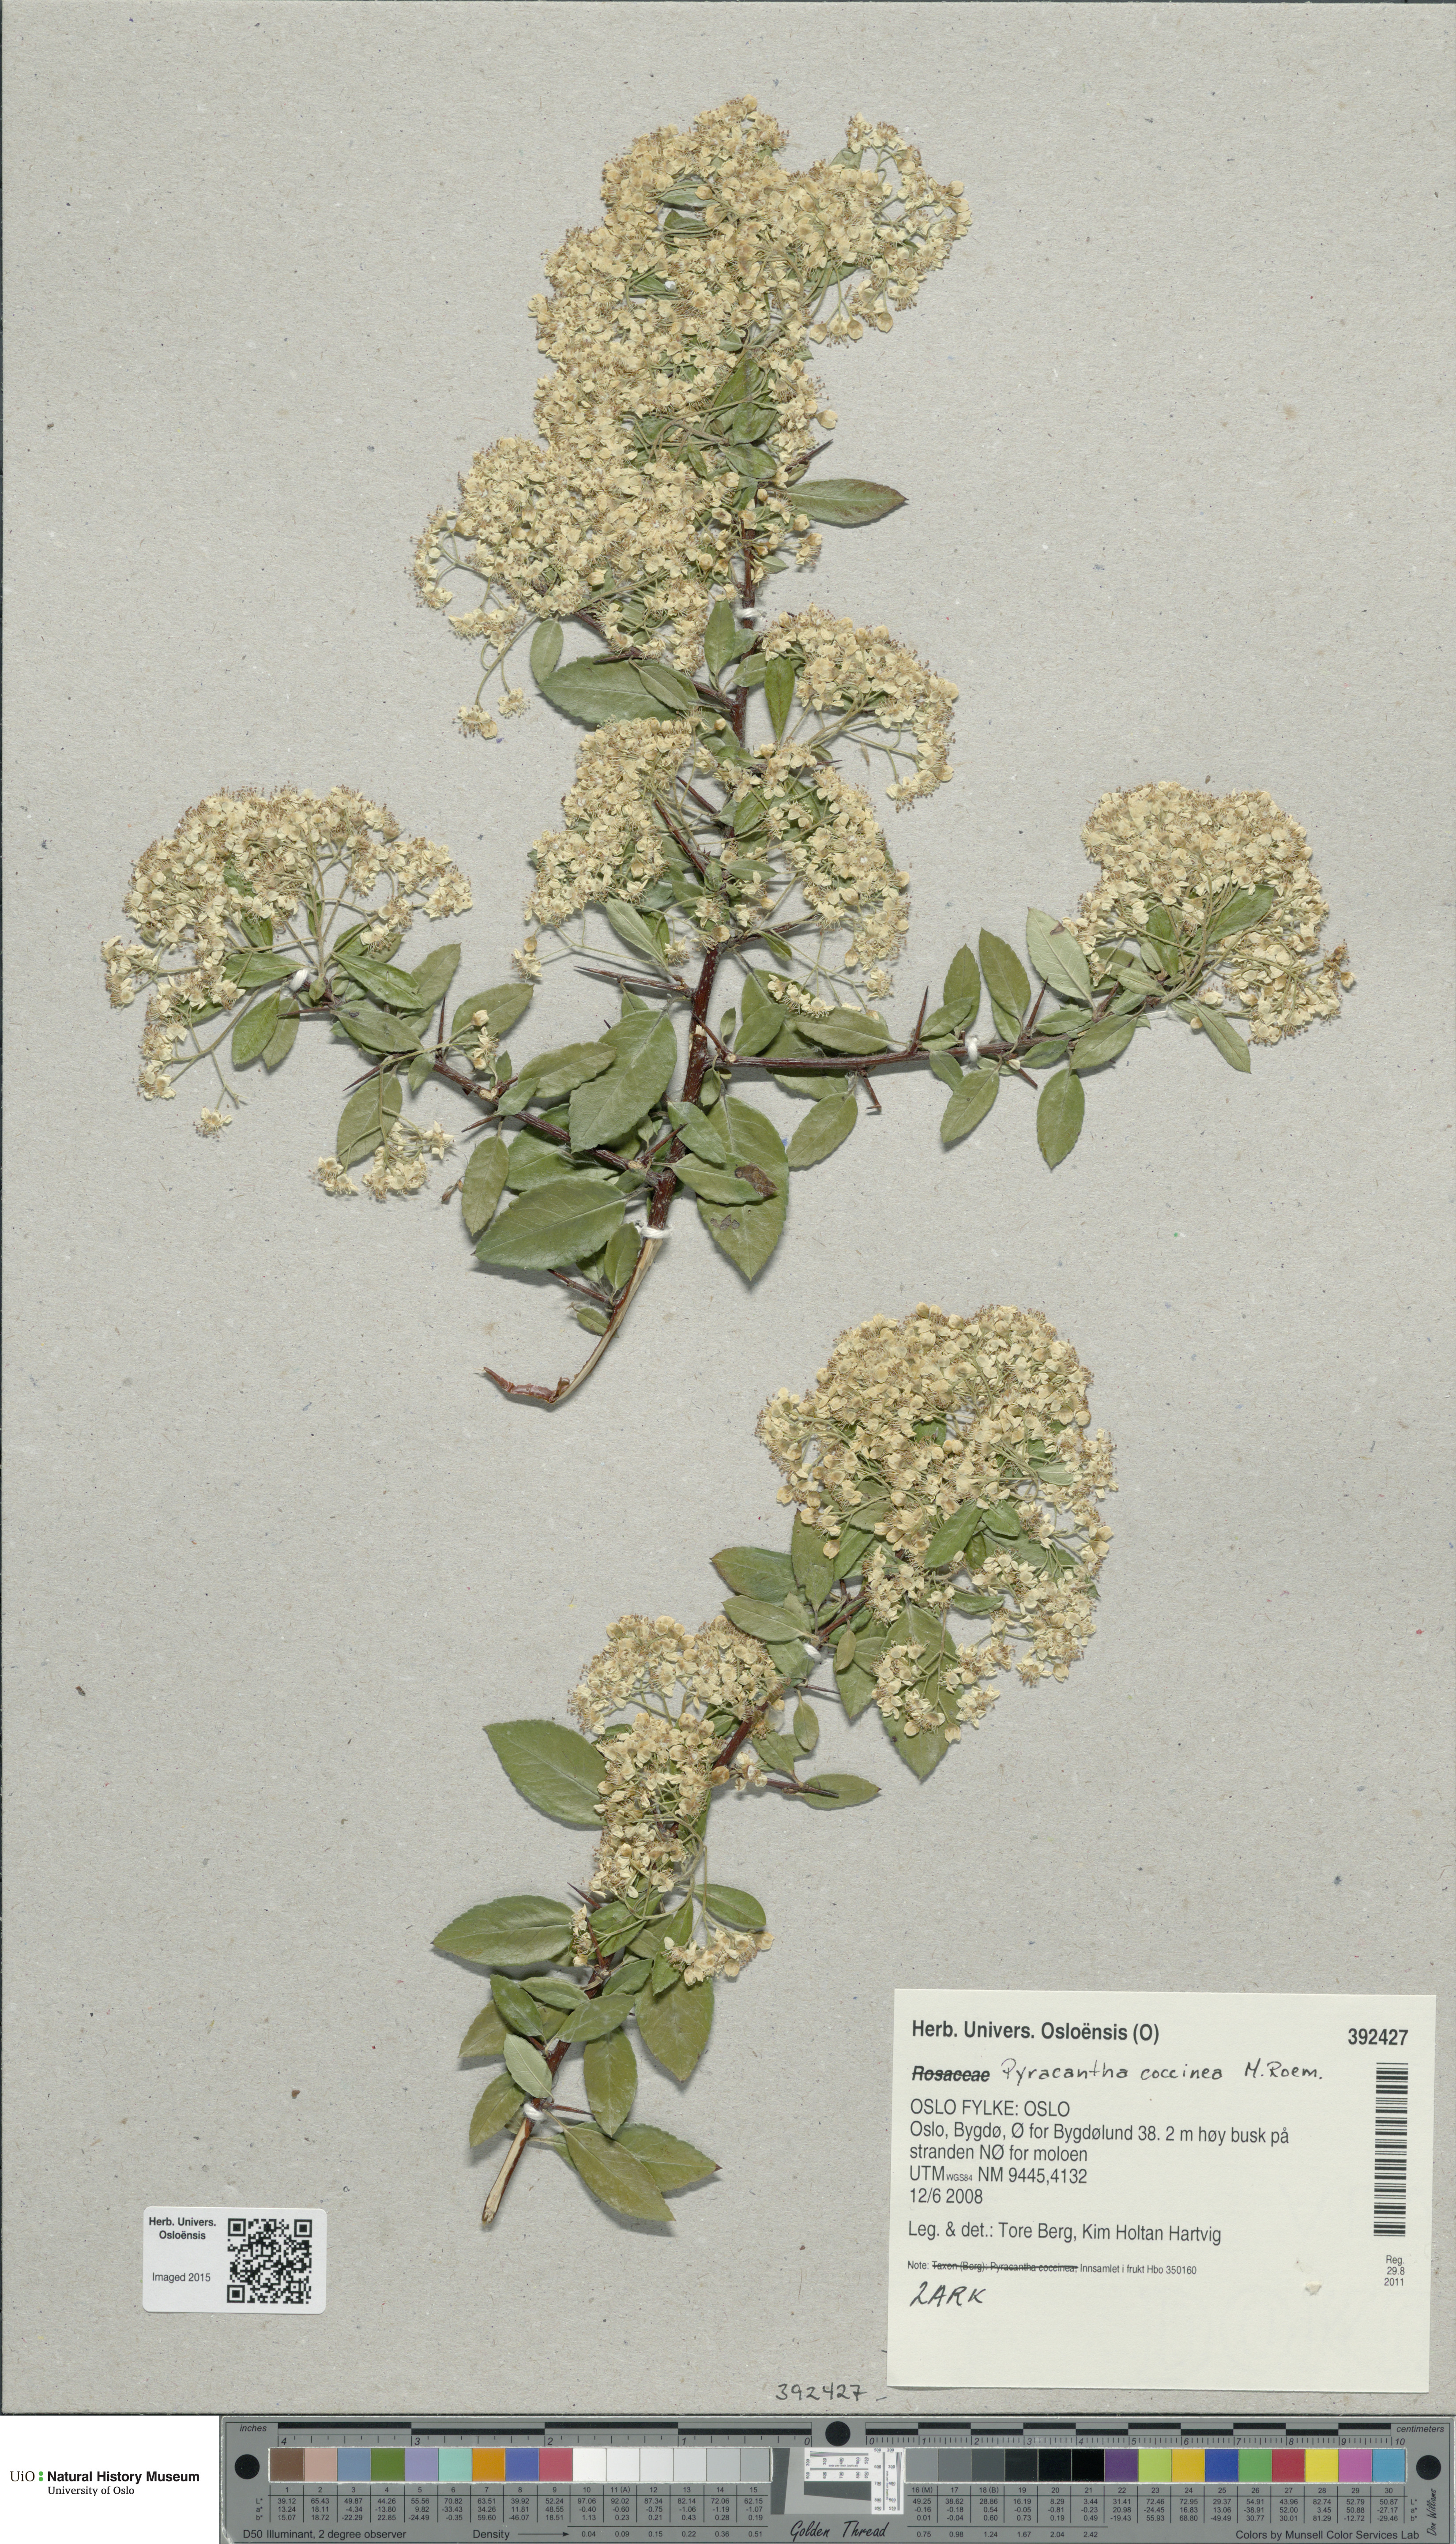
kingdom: Plantae
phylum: Tracheophyta
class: Magnoliopsida
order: Rosales
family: Rosaceae
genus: Pyracantha
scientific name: Pyracantha coccinea
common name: Firethorn
